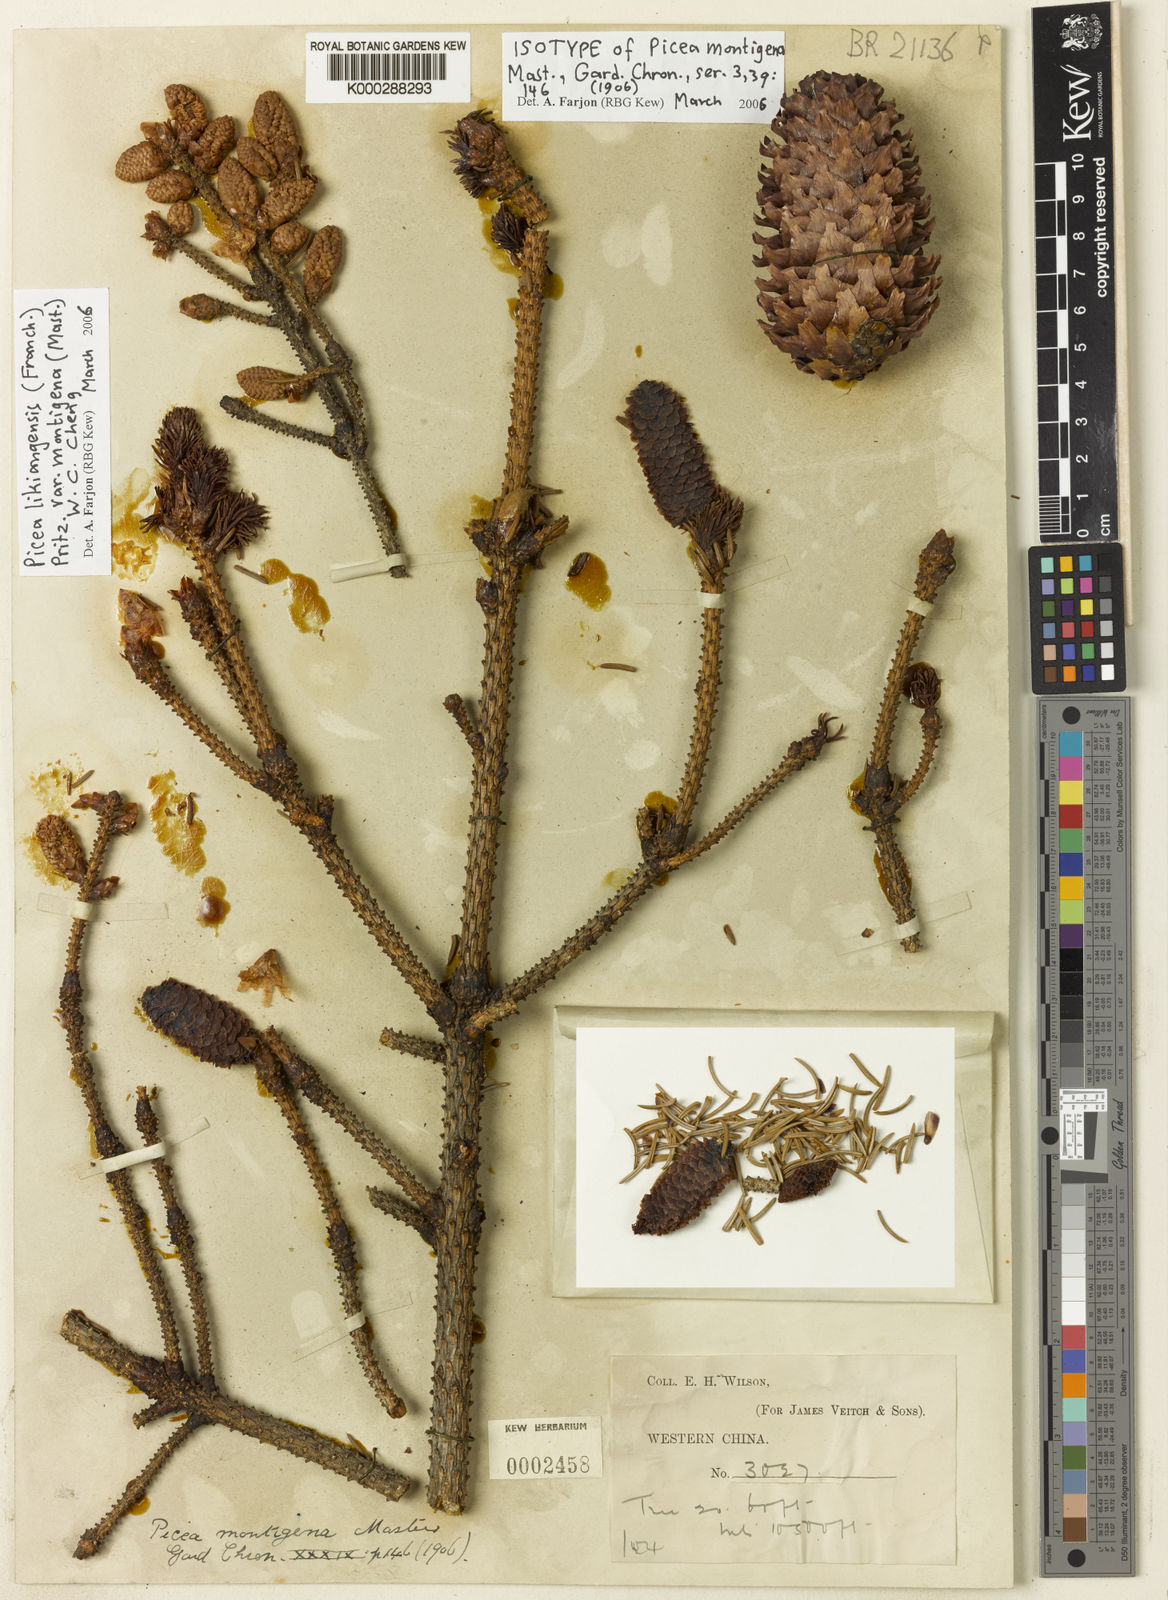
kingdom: Plantae
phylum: Tracheophyta
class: Pinopsida
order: Pinales
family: Pinaceae
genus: Picea
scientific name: Picea likiangensis
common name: Likiang spruce
